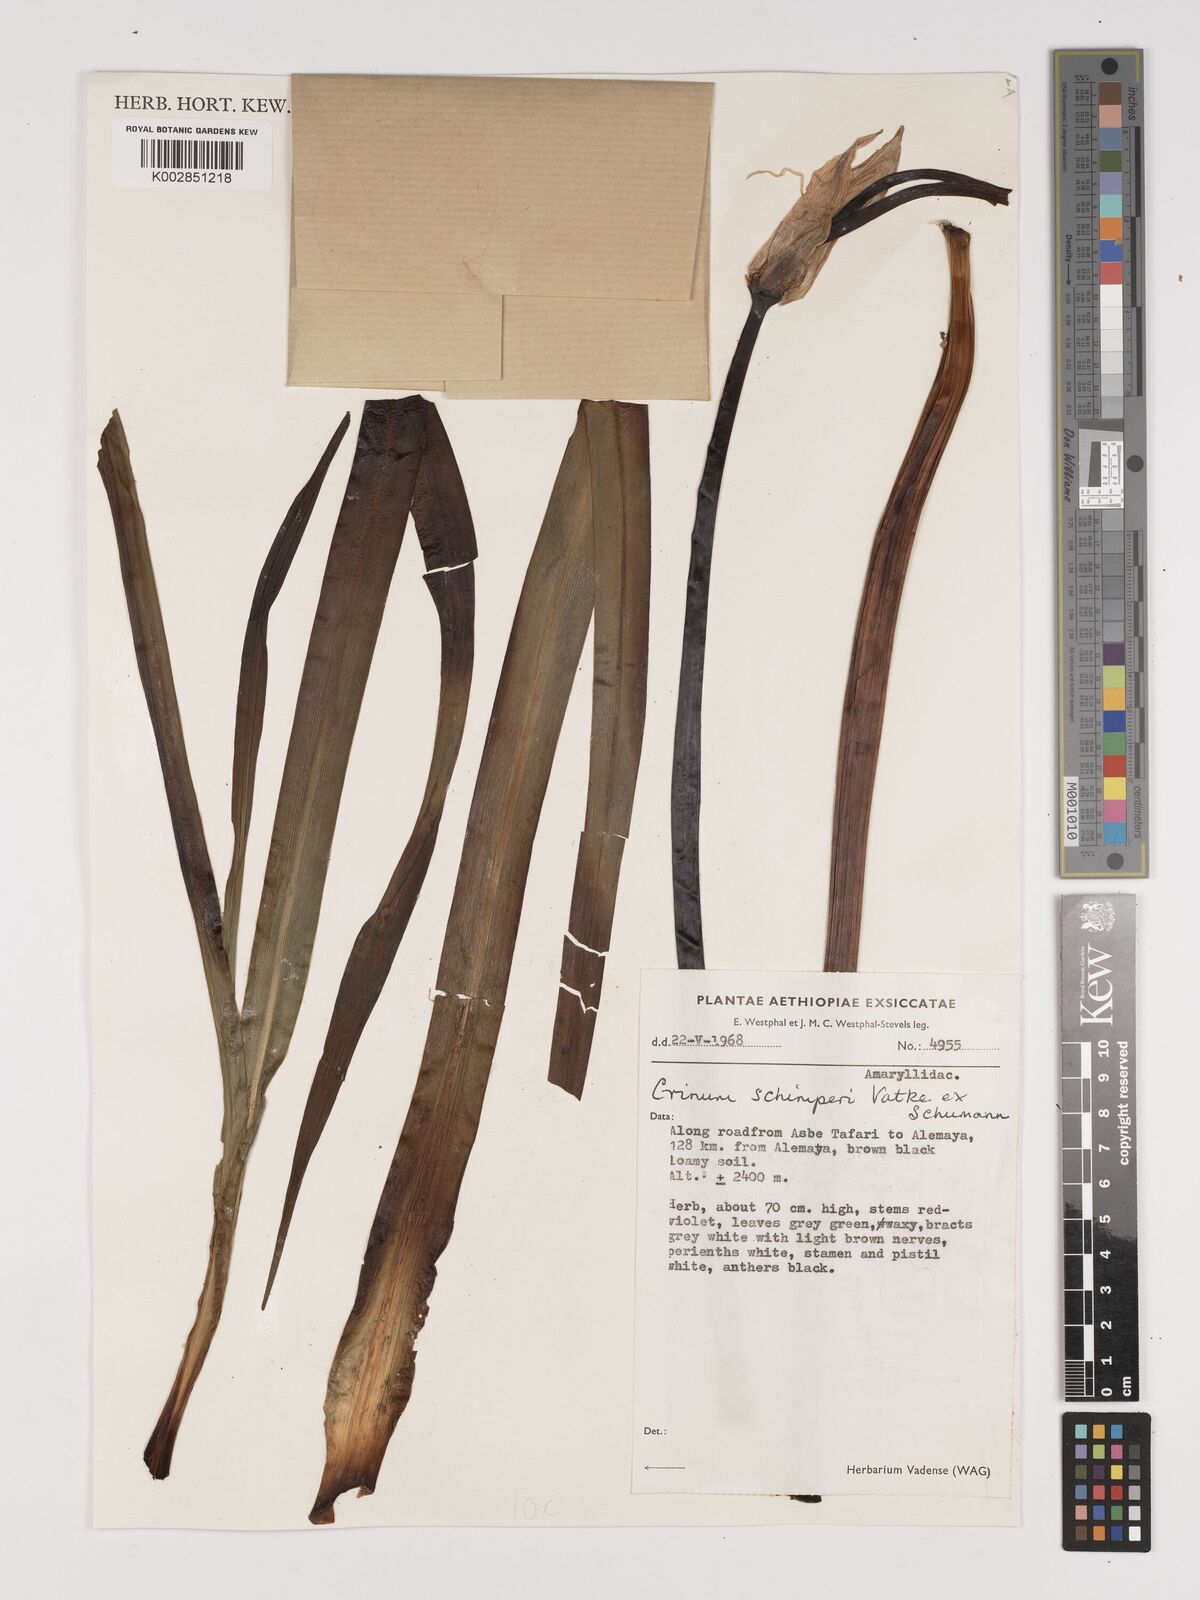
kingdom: Plantae
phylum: Tracheophyta
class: Liliopsida
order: Asparagales
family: Amaryllidaceae
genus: Crinum
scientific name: Crinum abyssinicum
